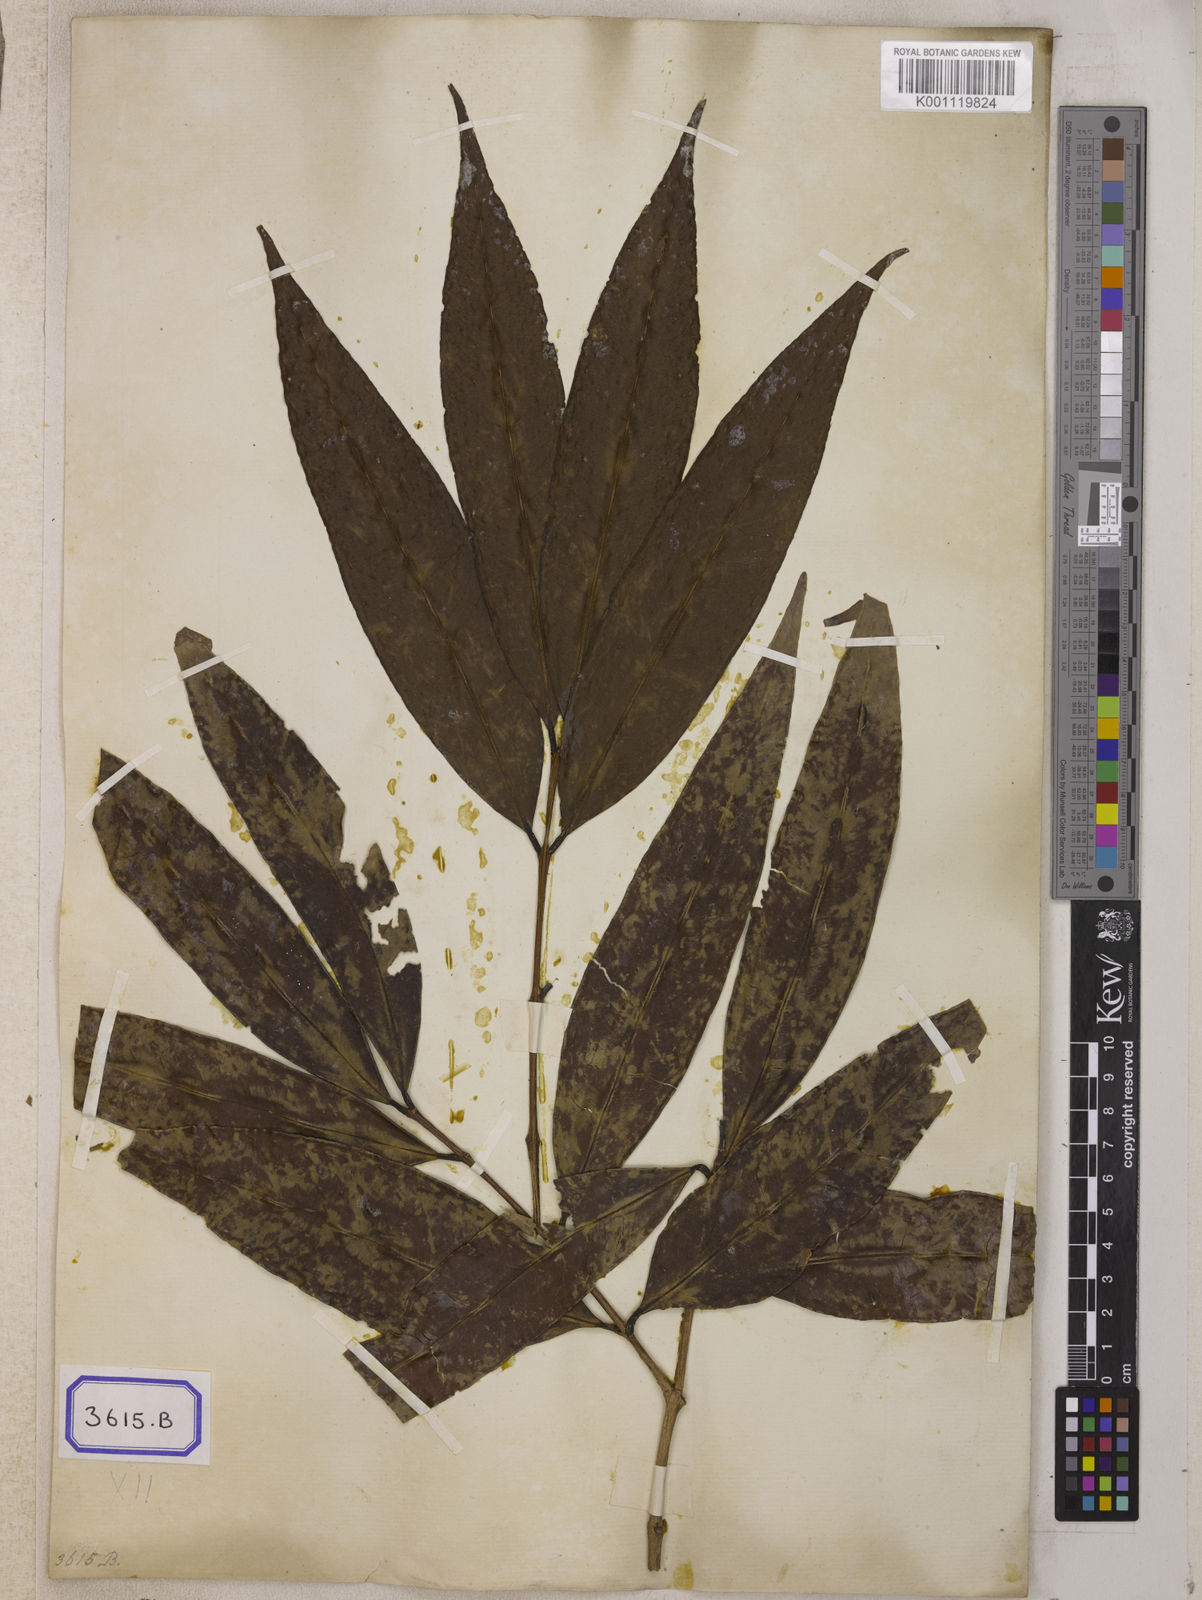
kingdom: Plantae
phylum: Tracheophyta
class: Magnoliopsida
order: Myrtales
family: Myrtaceae
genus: Syzygium
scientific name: Syzygium jambos
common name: Malabar plum
